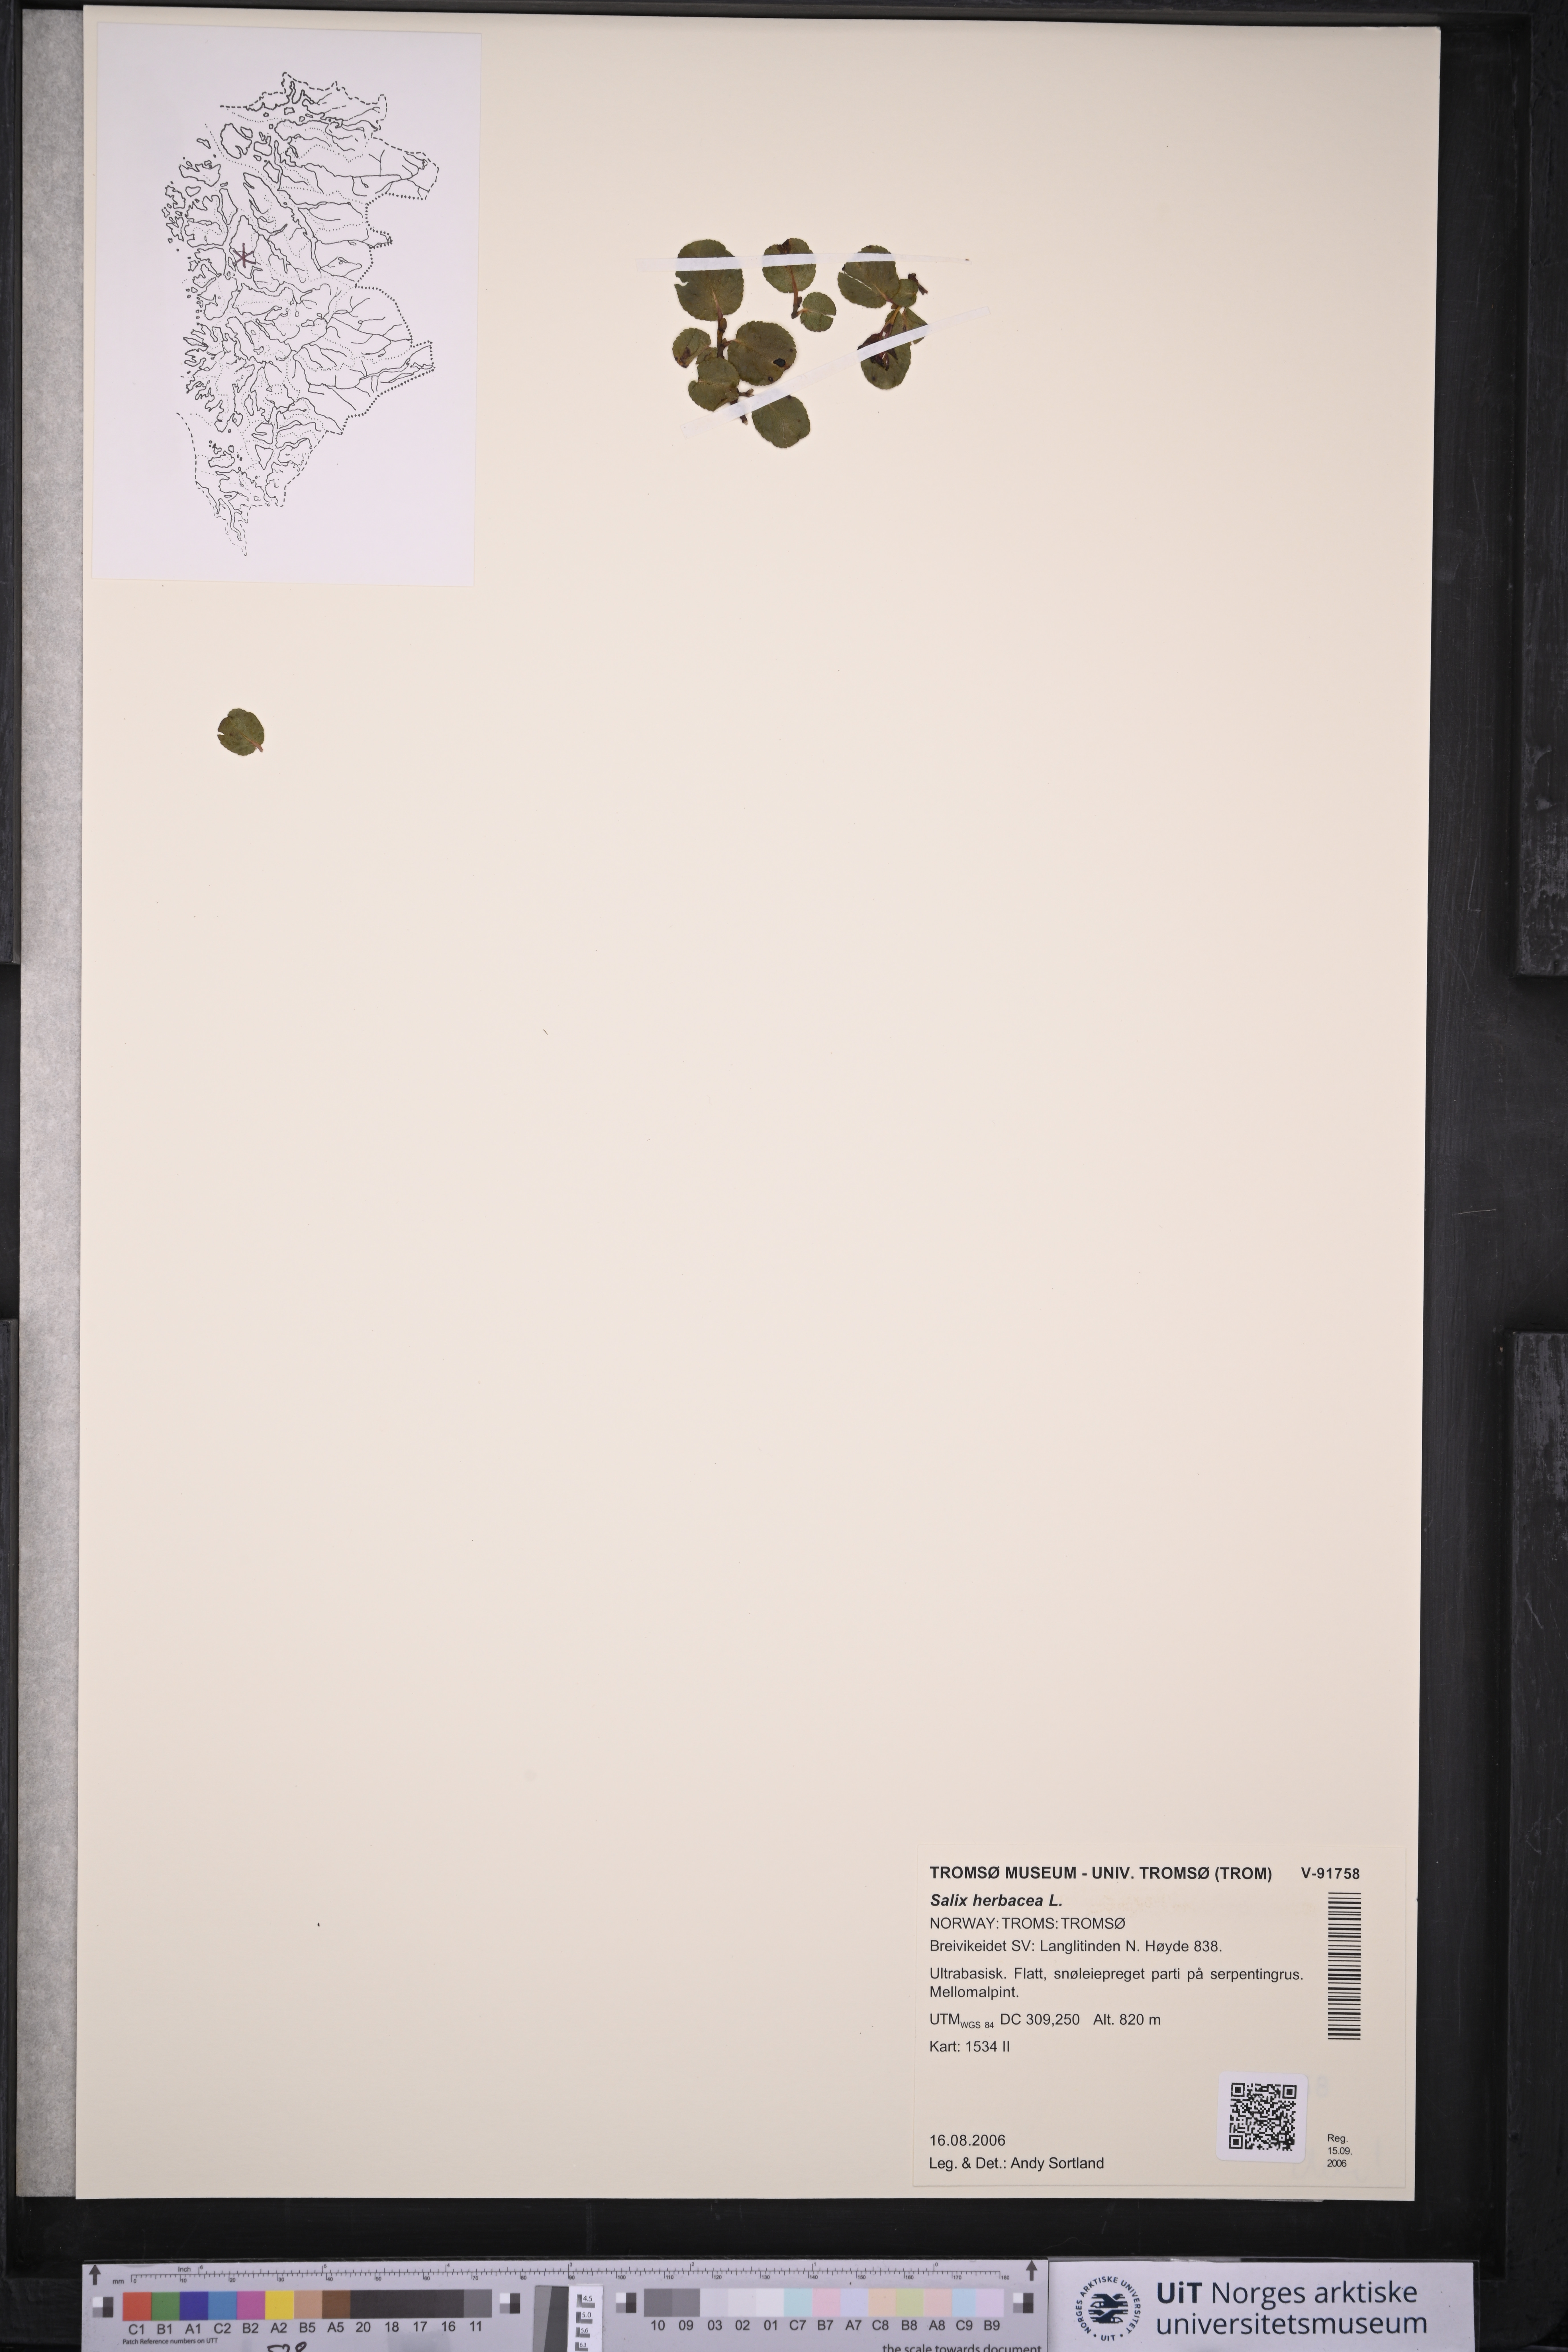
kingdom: Plantae
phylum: Tracheophyta
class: Magnoliopsida
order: Malpighiales
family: Salicaceae
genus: Salix
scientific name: Salix herbacea
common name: Dwarf willow
